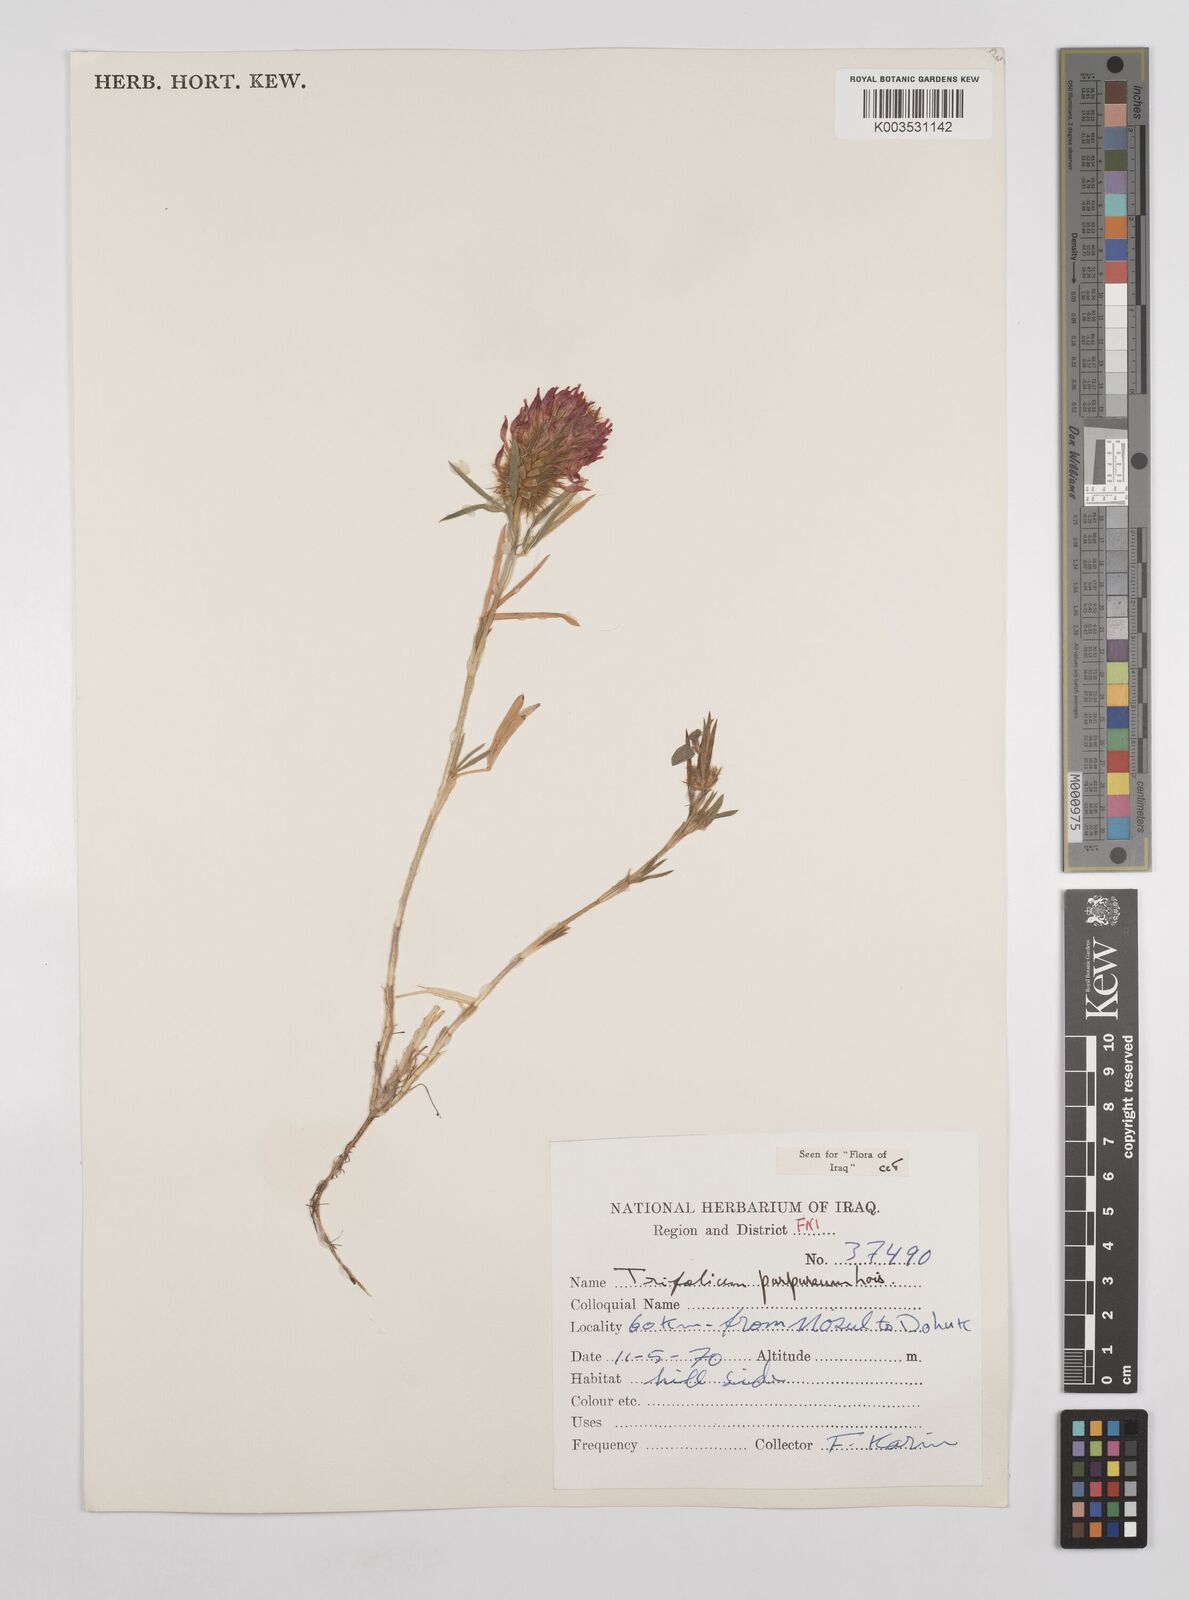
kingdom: Plantae
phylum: Tracheophyta
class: Magnoliopsida
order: Fabales
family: Fabaceae
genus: Trifolium
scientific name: Trifolium purpureum
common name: Purple clover
